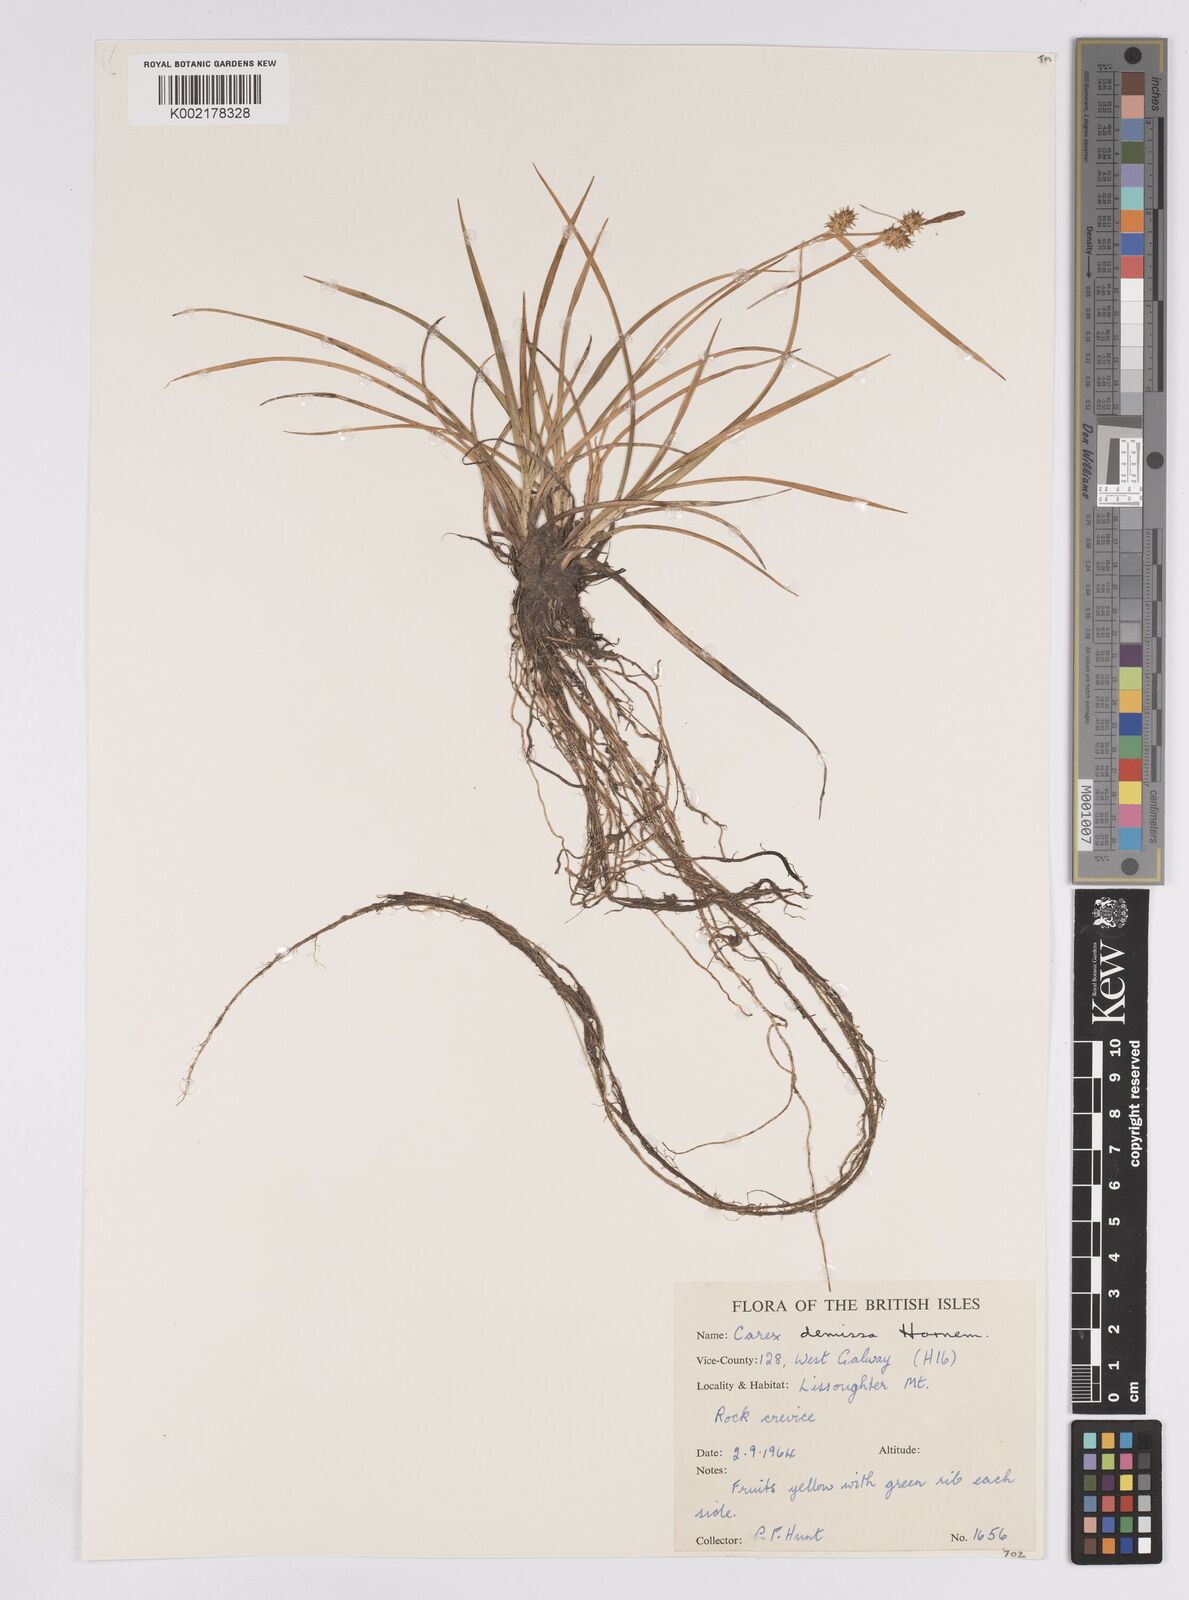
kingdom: Plantae
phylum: Tracheophyta
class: Liliopsida
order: Poales
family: Cyperaceae
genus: Carex
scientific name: Carex demissa
